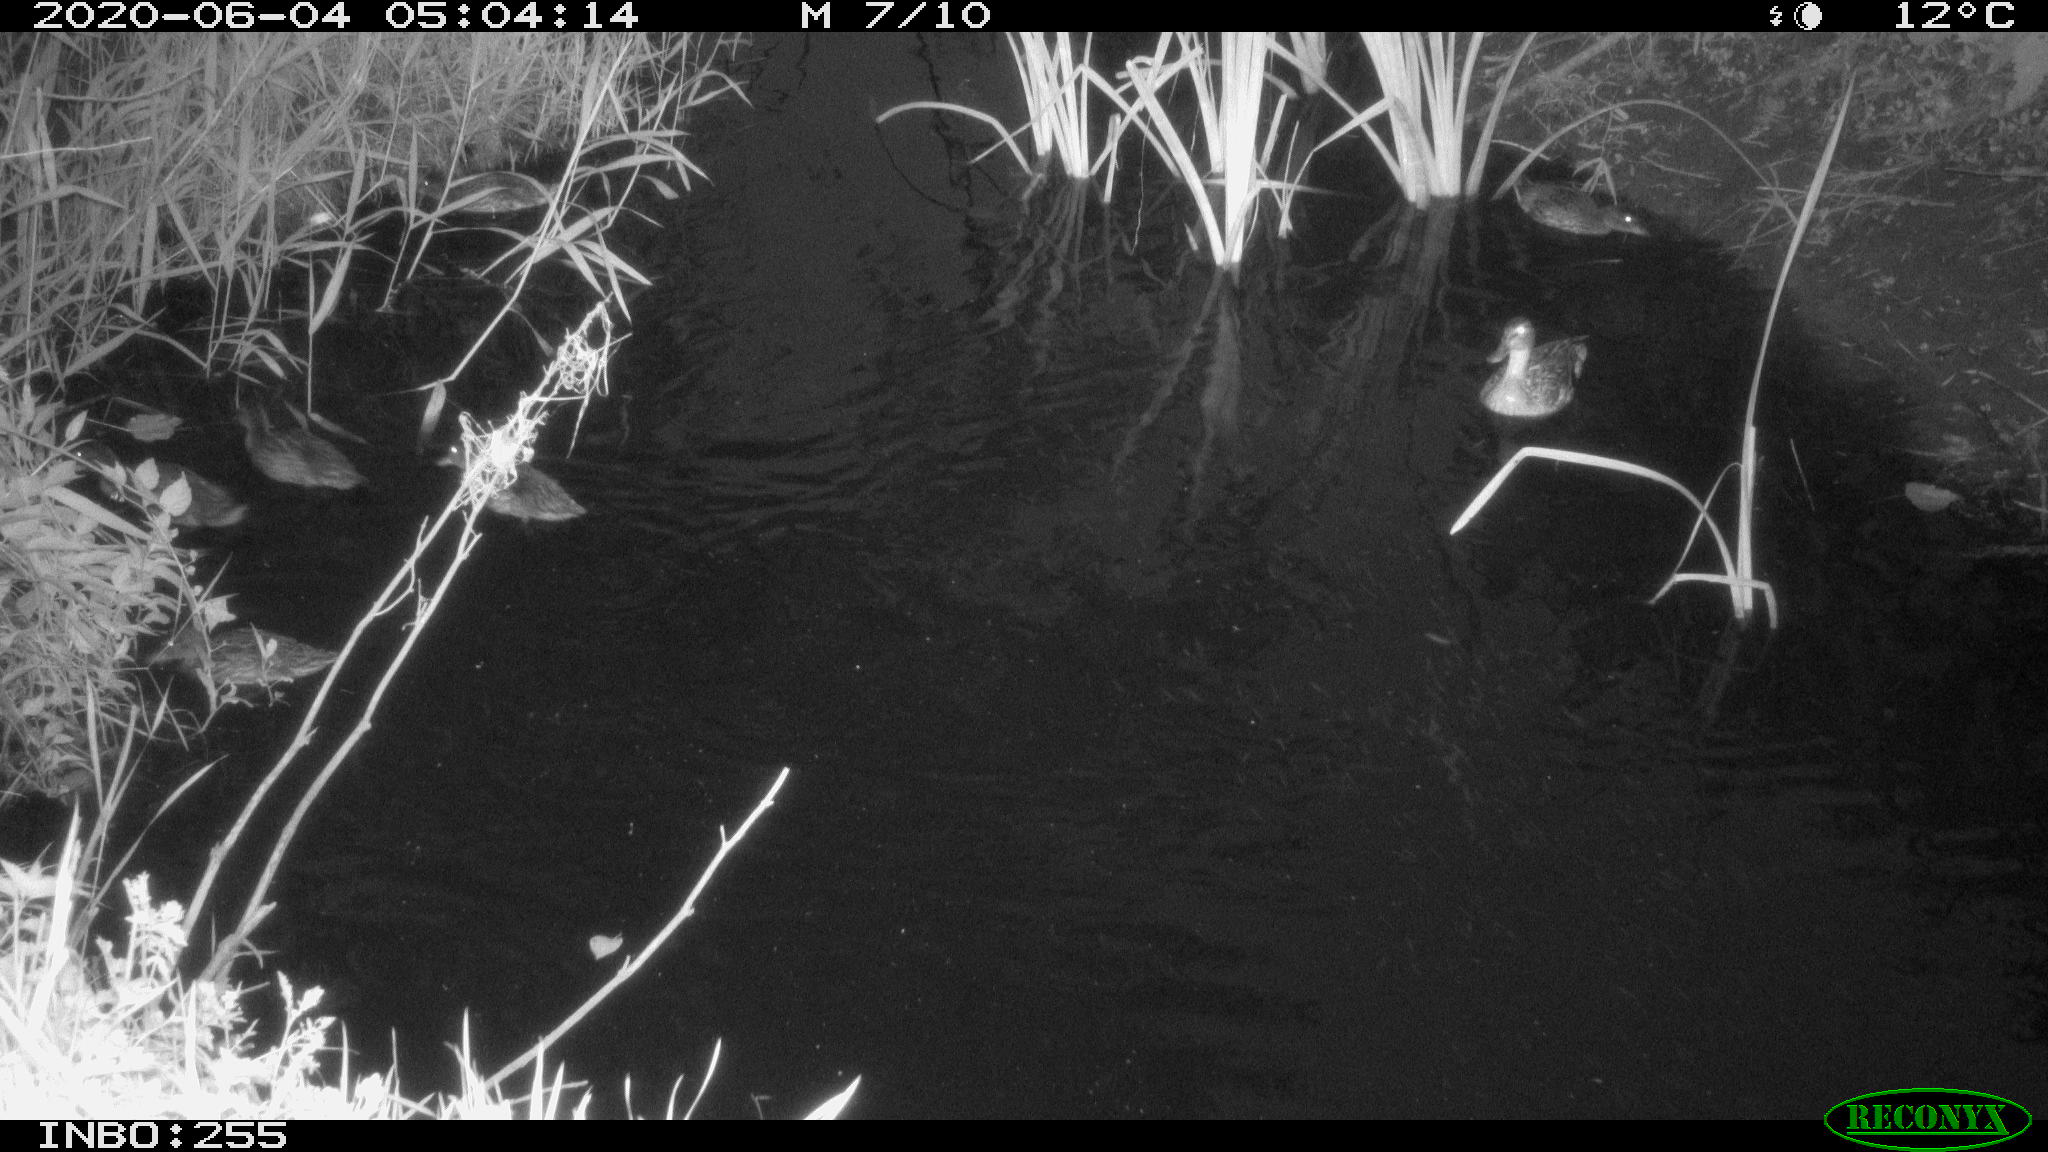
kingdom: Animalia
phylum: Chordata
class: Aves
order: Anseriformes
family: Anatidae
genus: Anas
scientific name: Anas platyrhynchos
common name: Mallard
